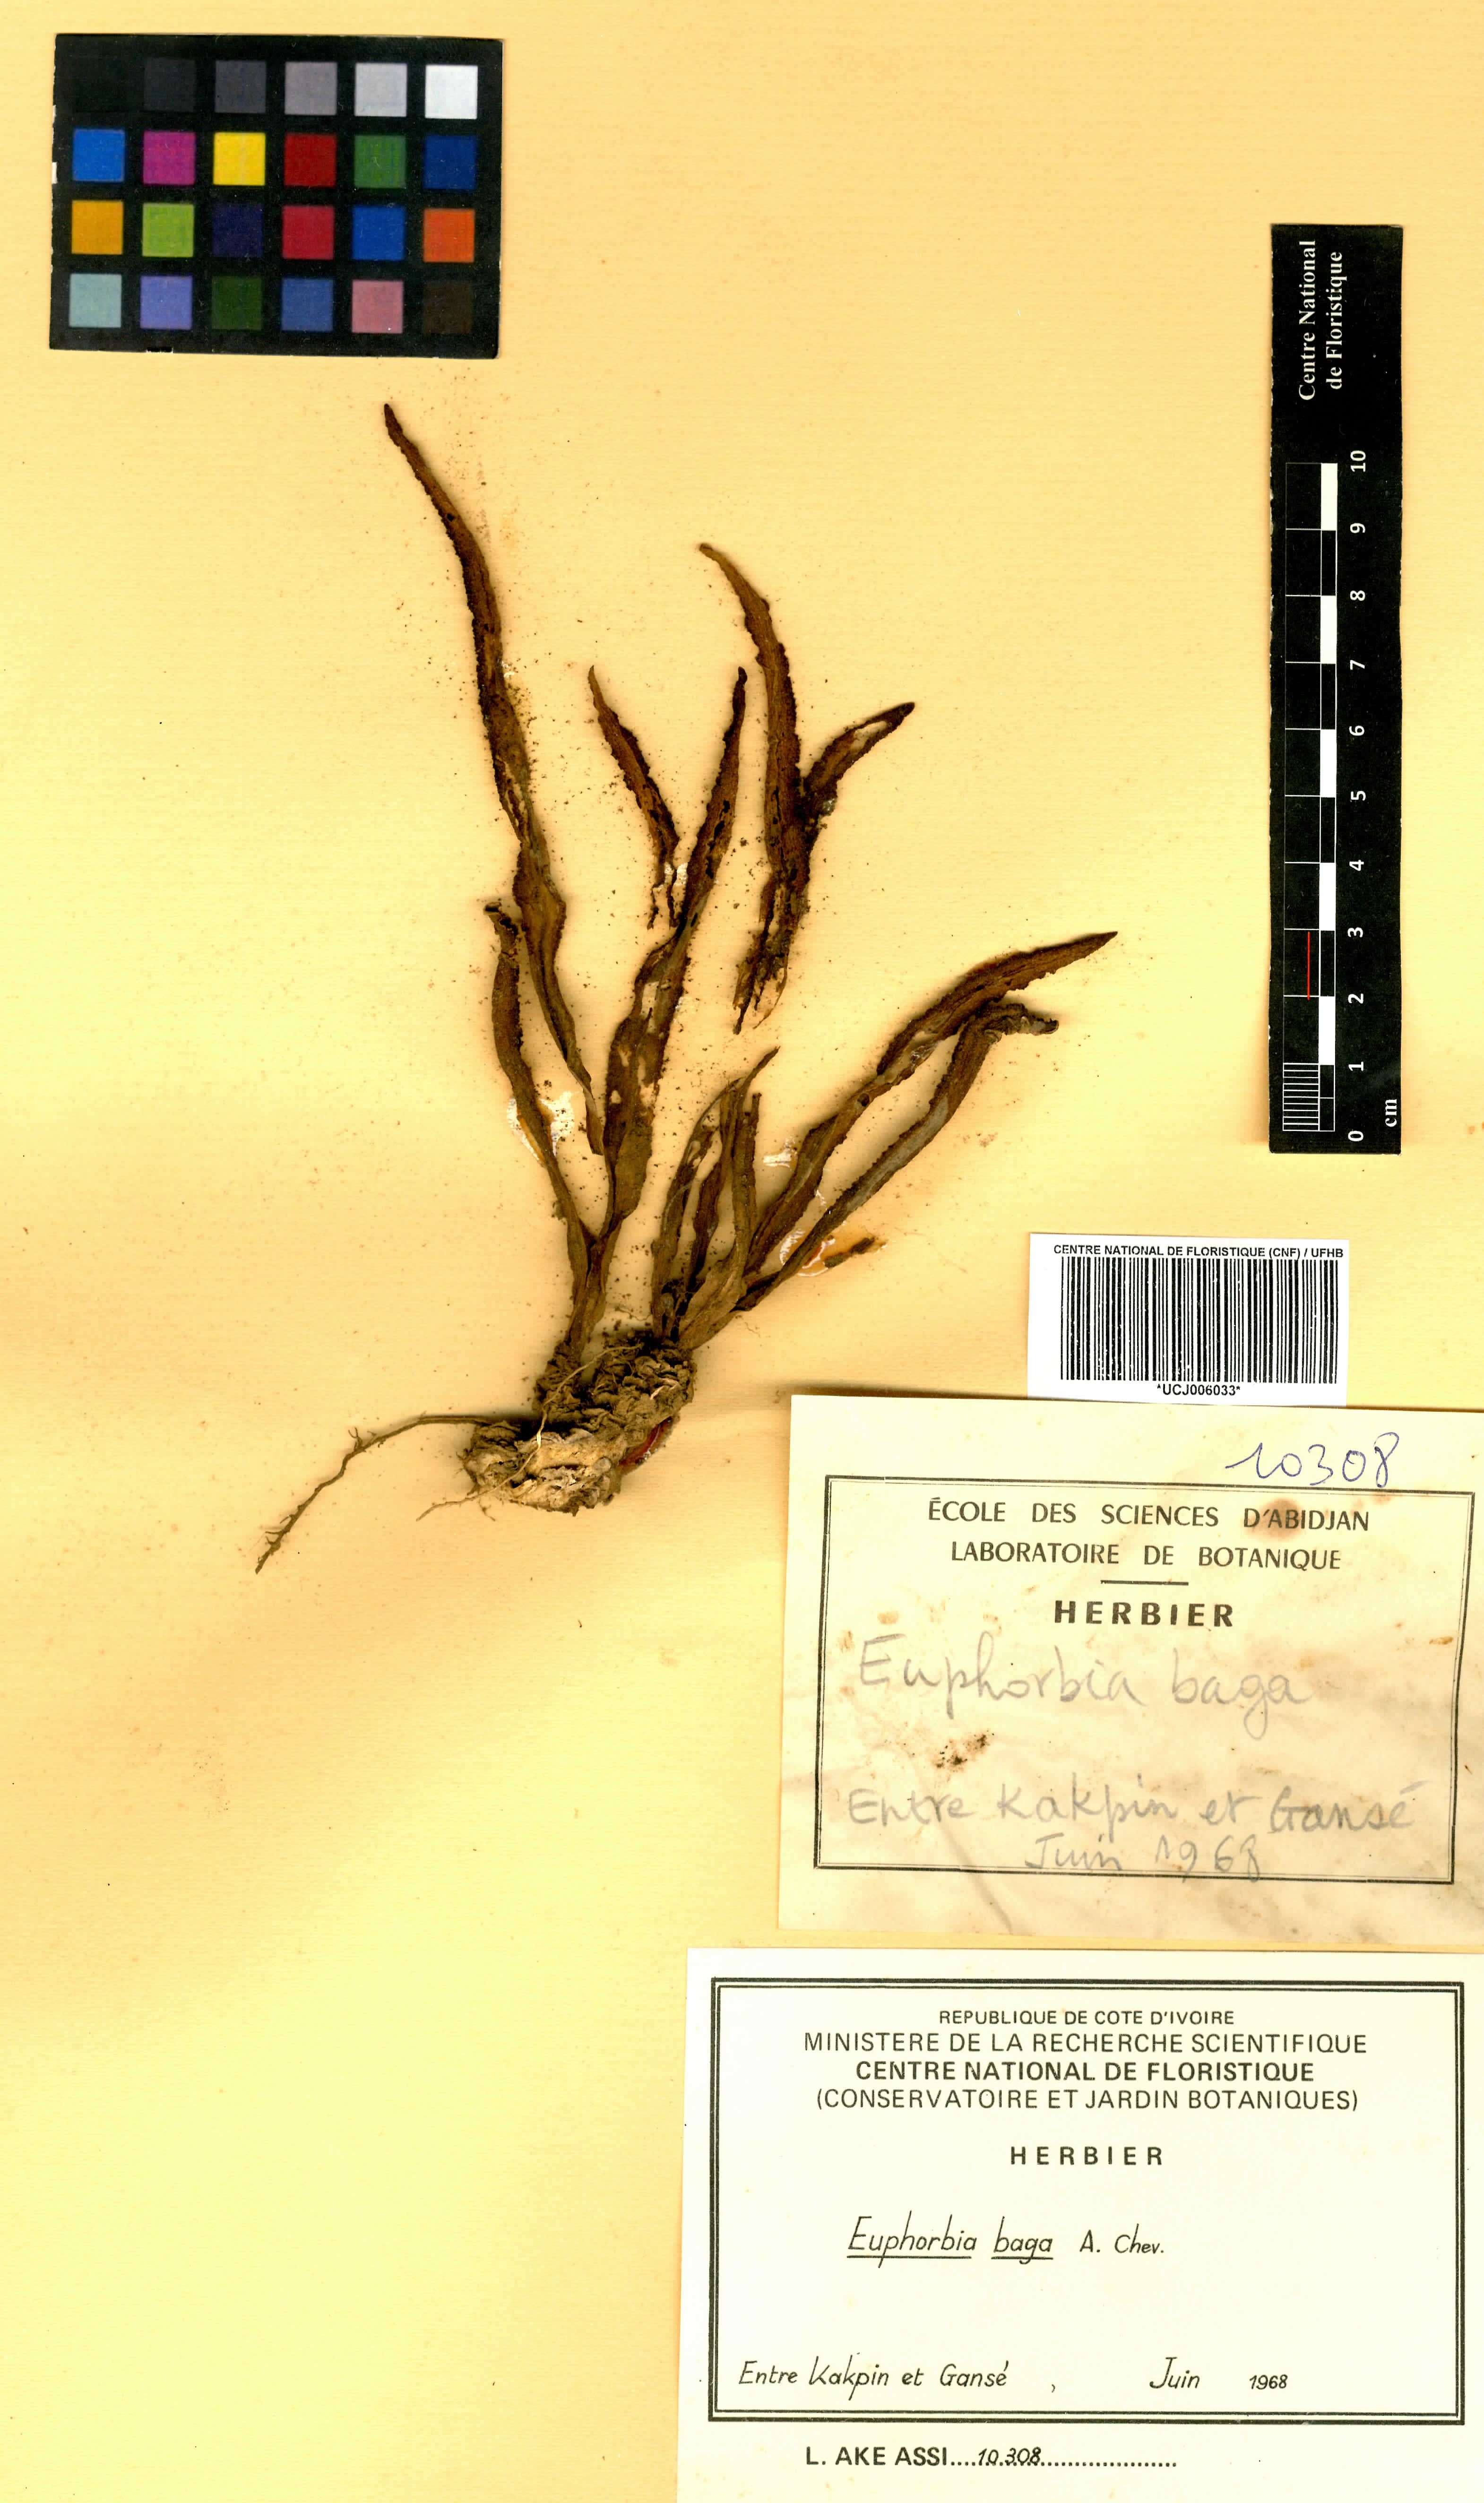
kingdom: Plantae
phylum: Tracheophyta
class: Magnoliopsida
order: Malpighiales
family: Euphorbiaceae
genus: Euphorbia
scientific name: Euphorbia baga
